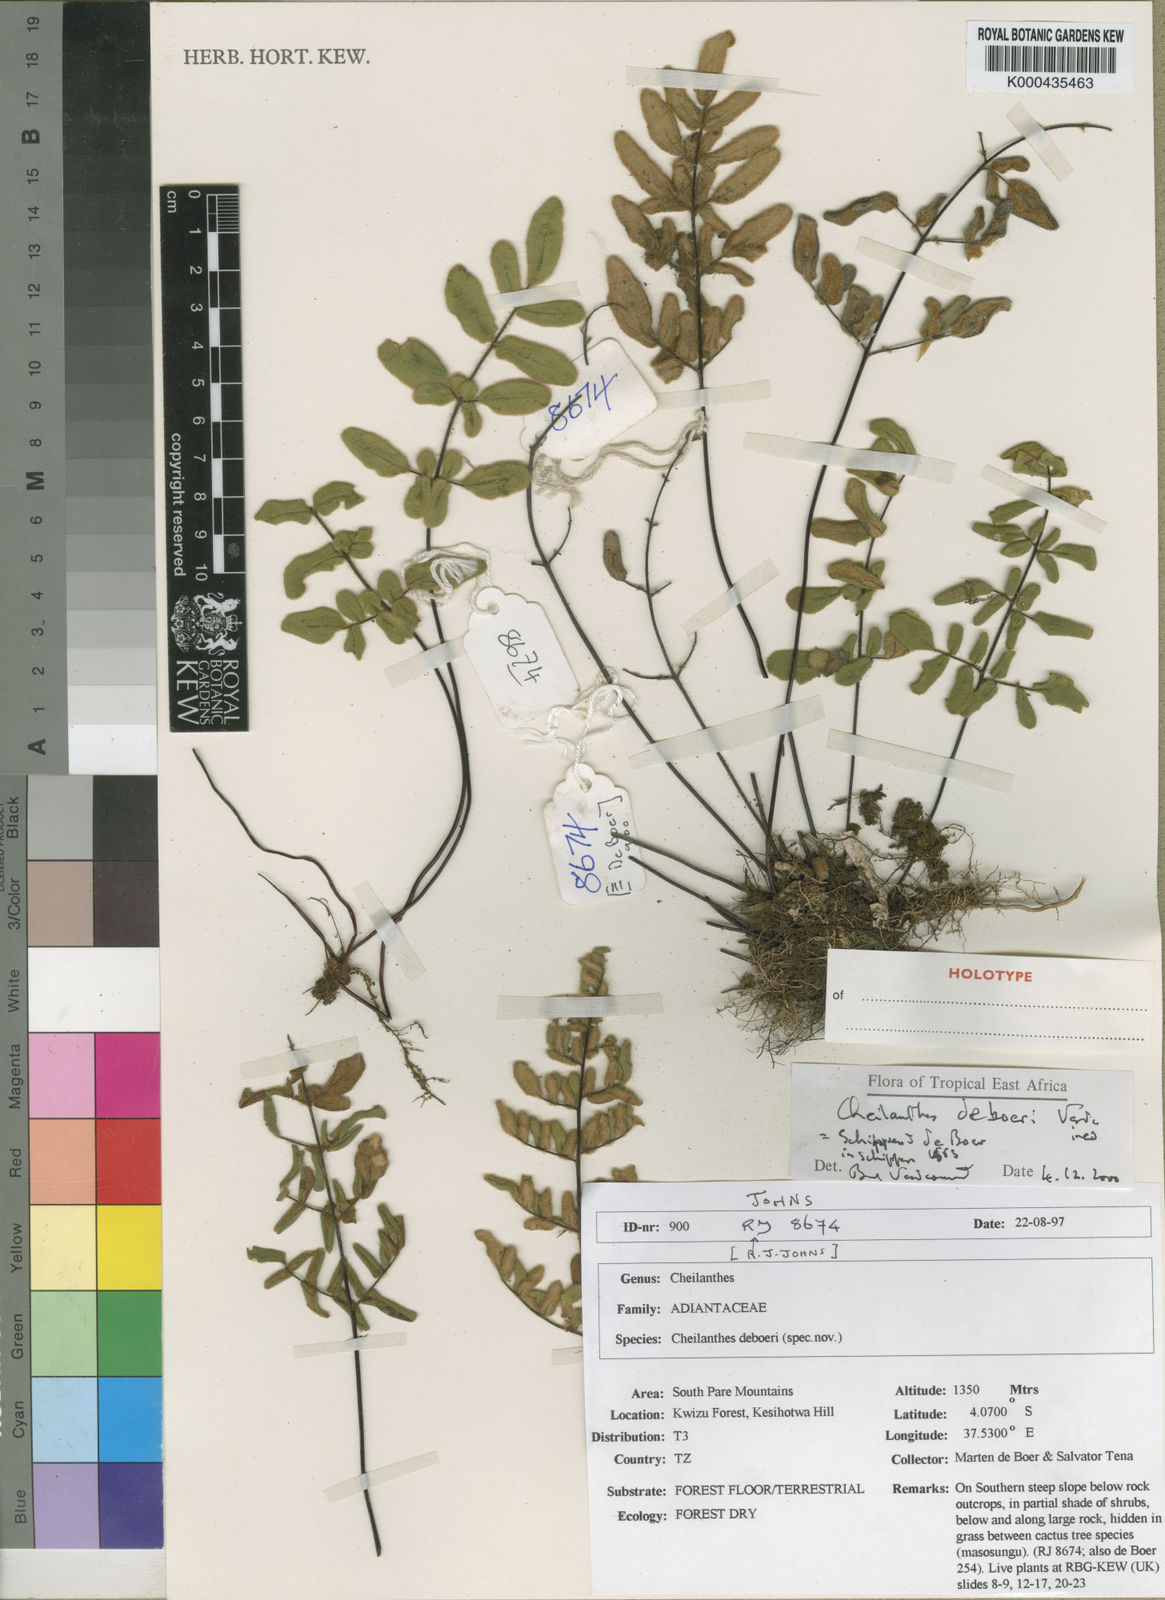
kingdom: Plantae
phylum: Tracheophyta
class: Polypodiopsida
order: Polypodiales
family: Pteridaceae
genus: Cheilanthes
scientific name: Cheilanthes deboeri
